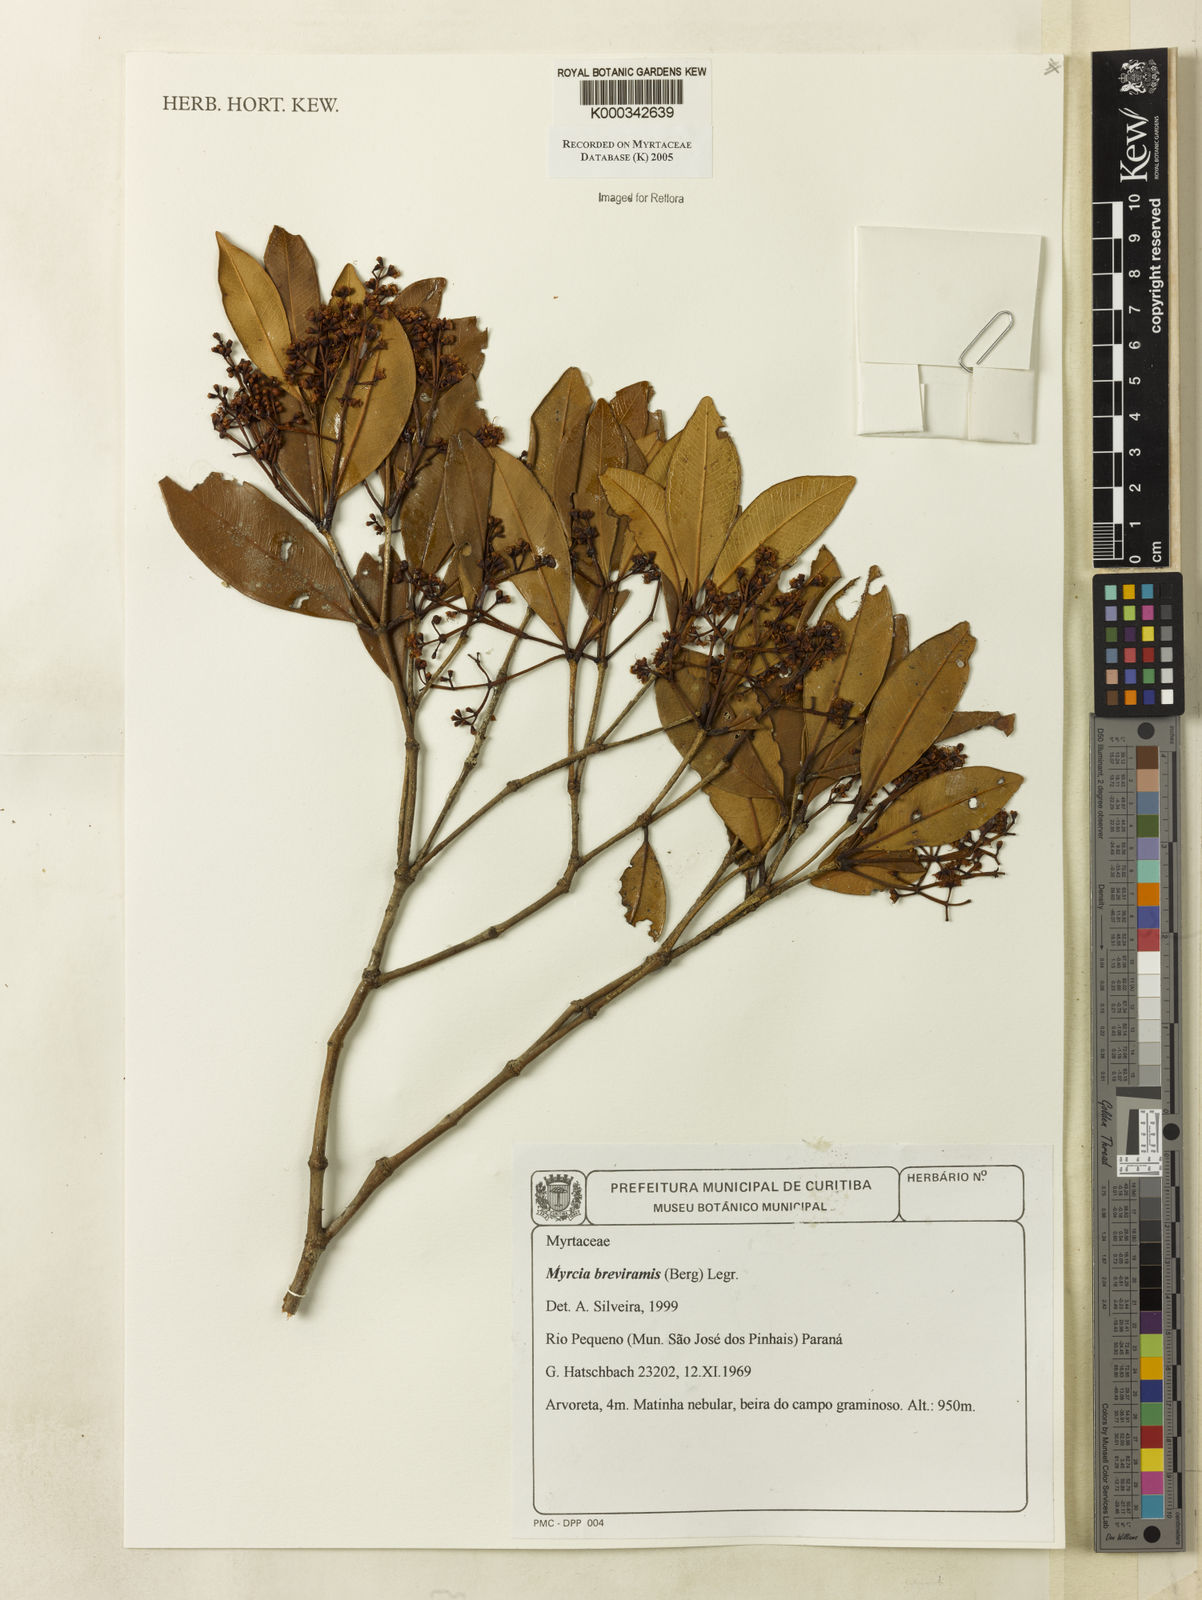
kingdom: Plantae
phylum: Tracheophyta
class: Magnoliopsida
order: Myrtales
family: Myrtaceae
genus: Myrcia
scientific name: Myrcia pulchra
